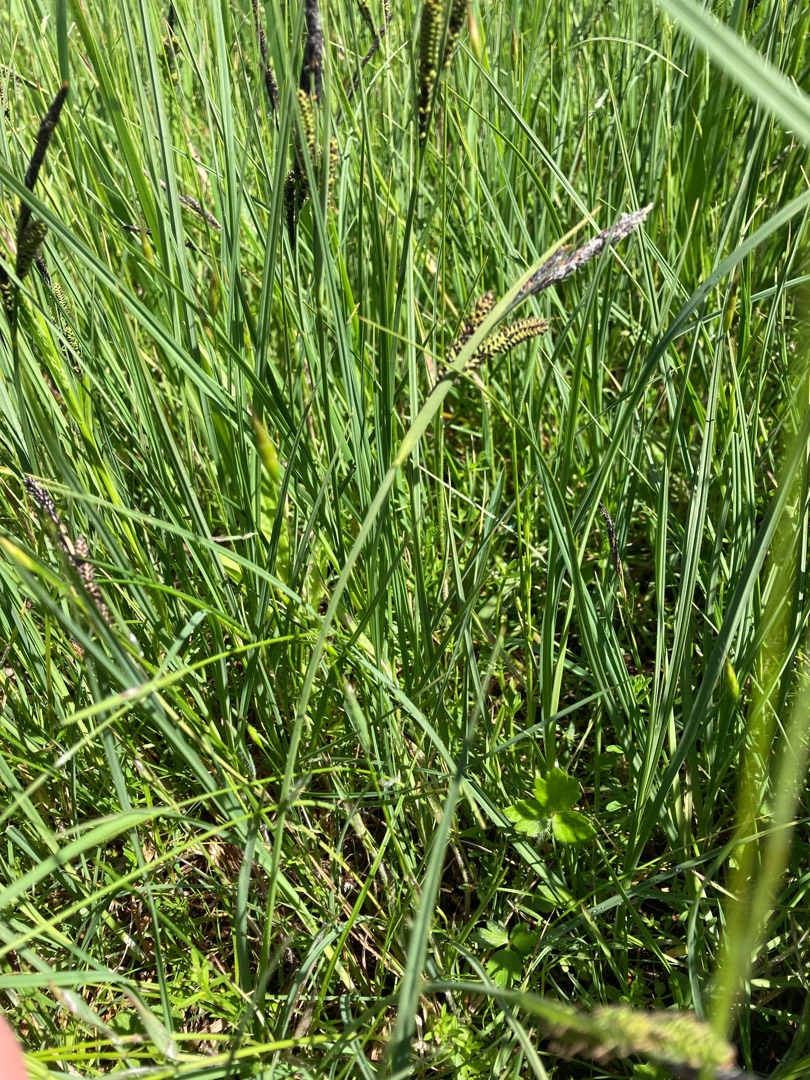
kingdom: Plantae
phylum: Tracheophyta
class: Liliopsida
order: Poales
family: Cyperaceae
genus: Carex
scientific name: Carex nigra
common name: Almindelig star
